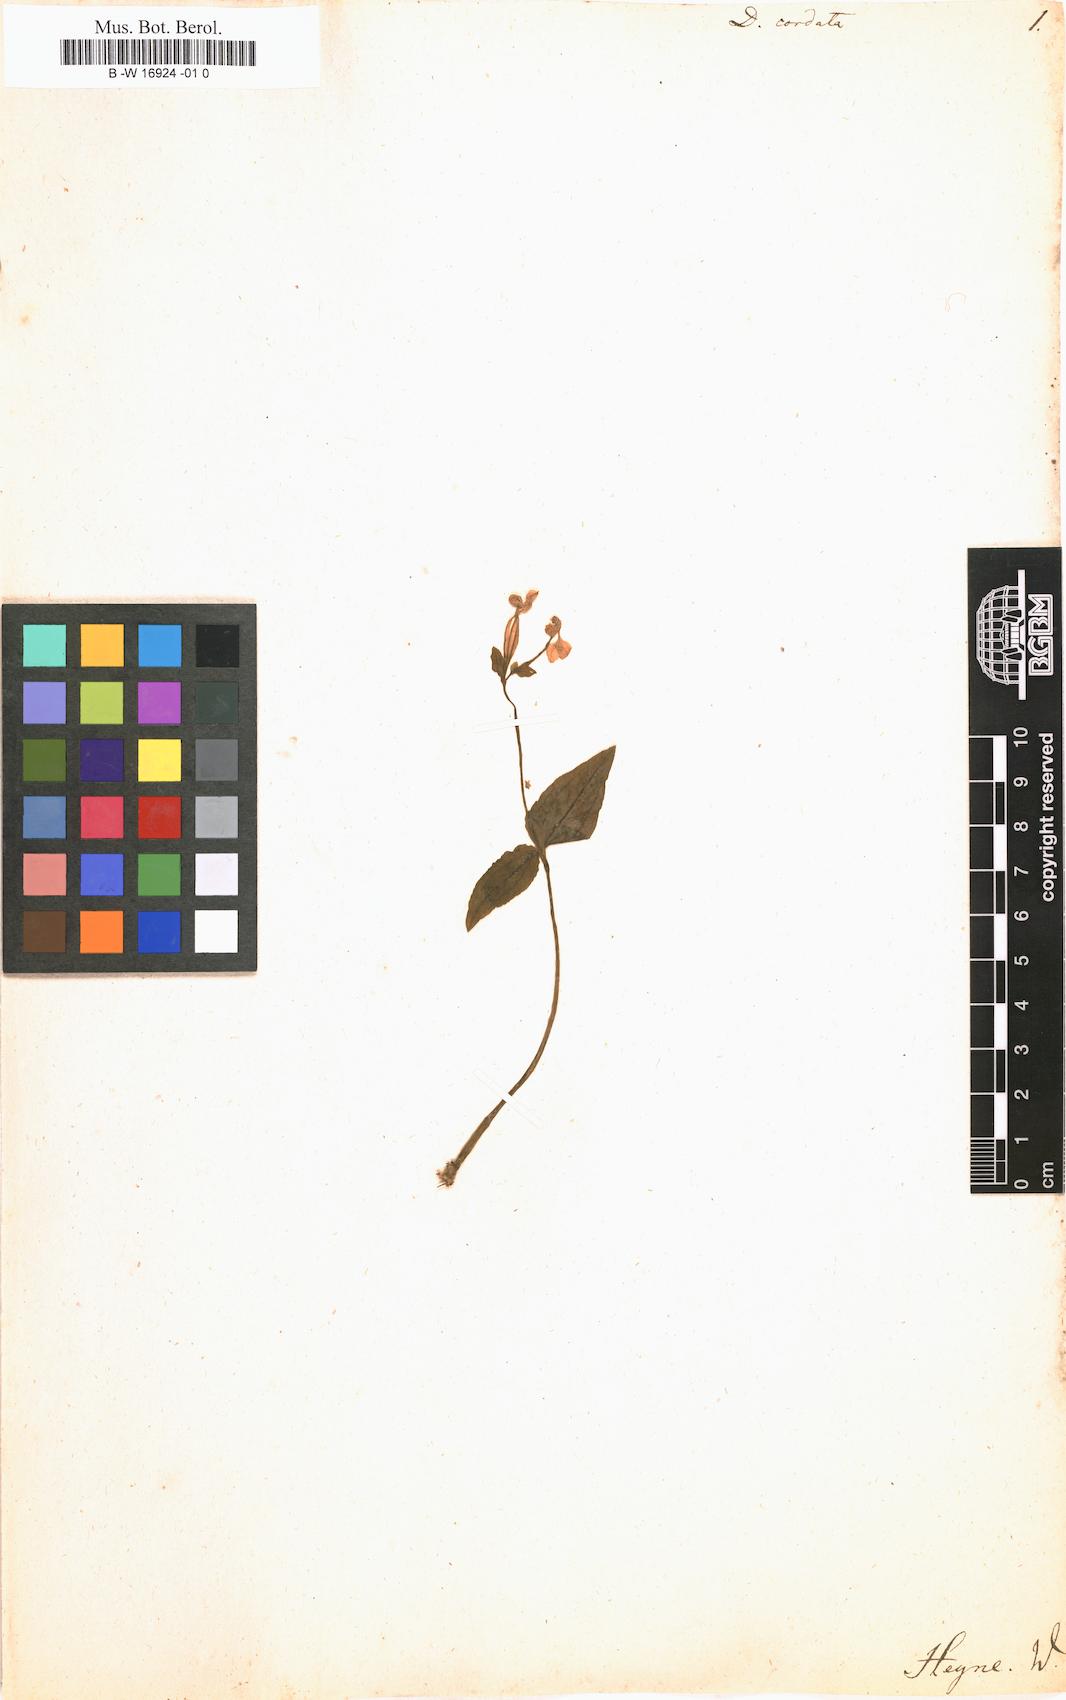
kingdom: Plantae
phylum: Tracheophyta
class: Liliopsida
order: Asparagales
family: Orchidaceae
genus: Disperis
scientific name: Disperis cordata
